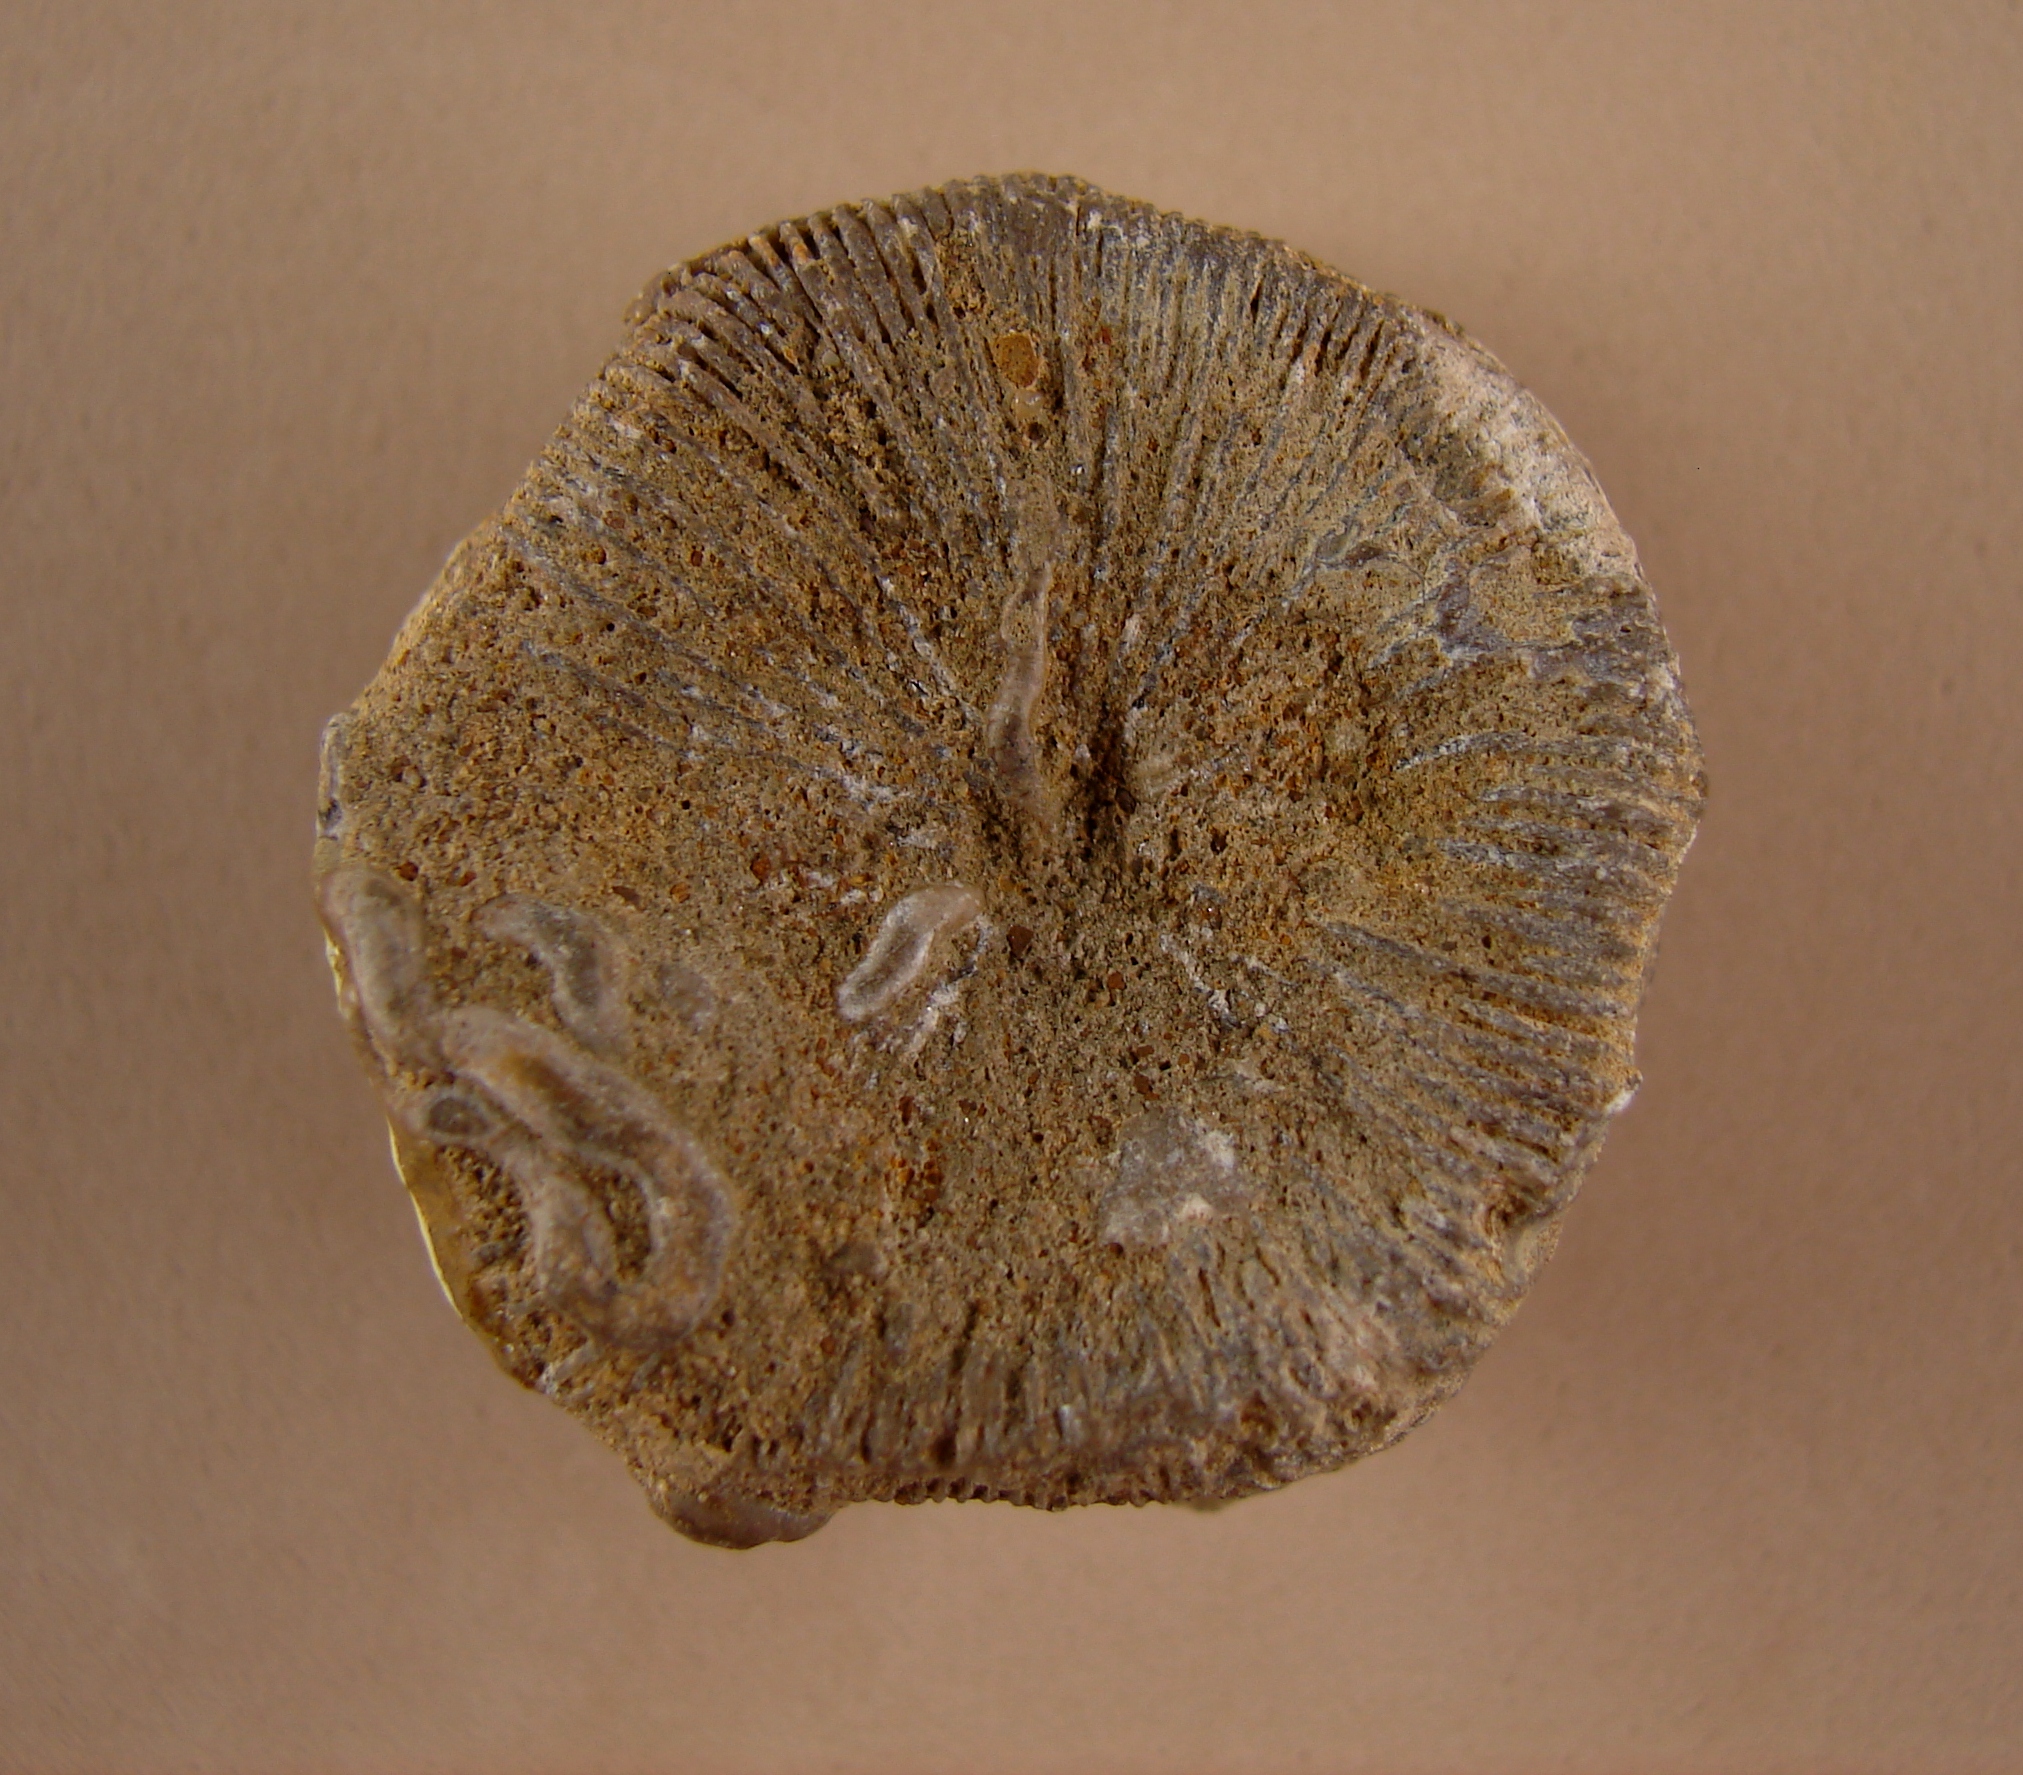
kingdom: Animalia
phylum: Cnidaria
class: Anthozoa
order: Scleractinia
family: Thecosmiliidae
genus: Montlivaltia
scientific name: Montlivaltia
